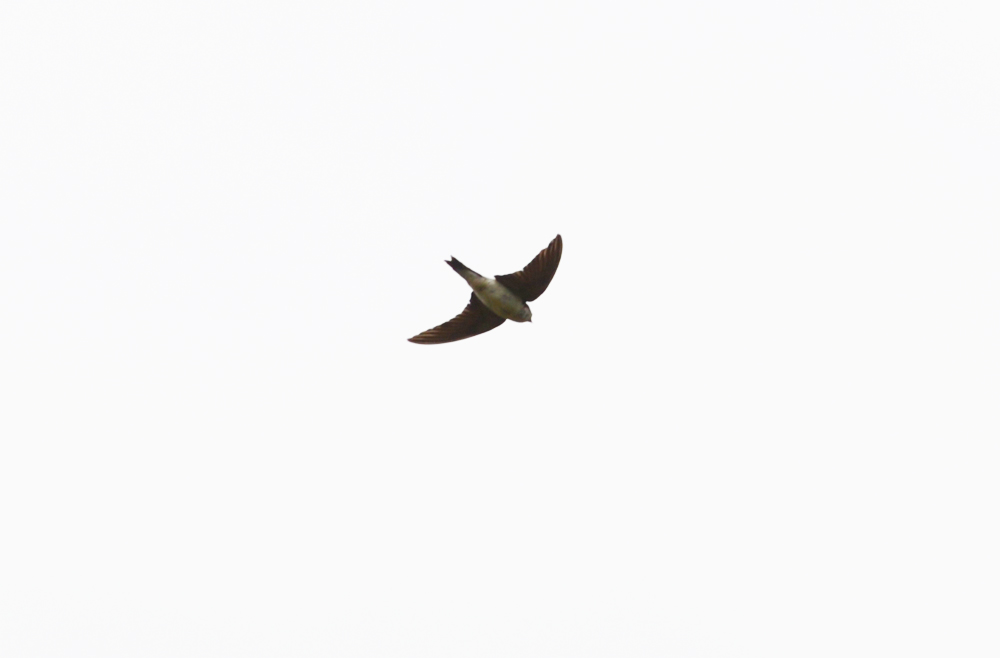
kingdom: Animalia
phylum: Chordata
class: Aves
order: Passeriformes
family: Hirundinidae
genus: Delichon
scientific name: Delichon urbicum
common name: Common house martin
